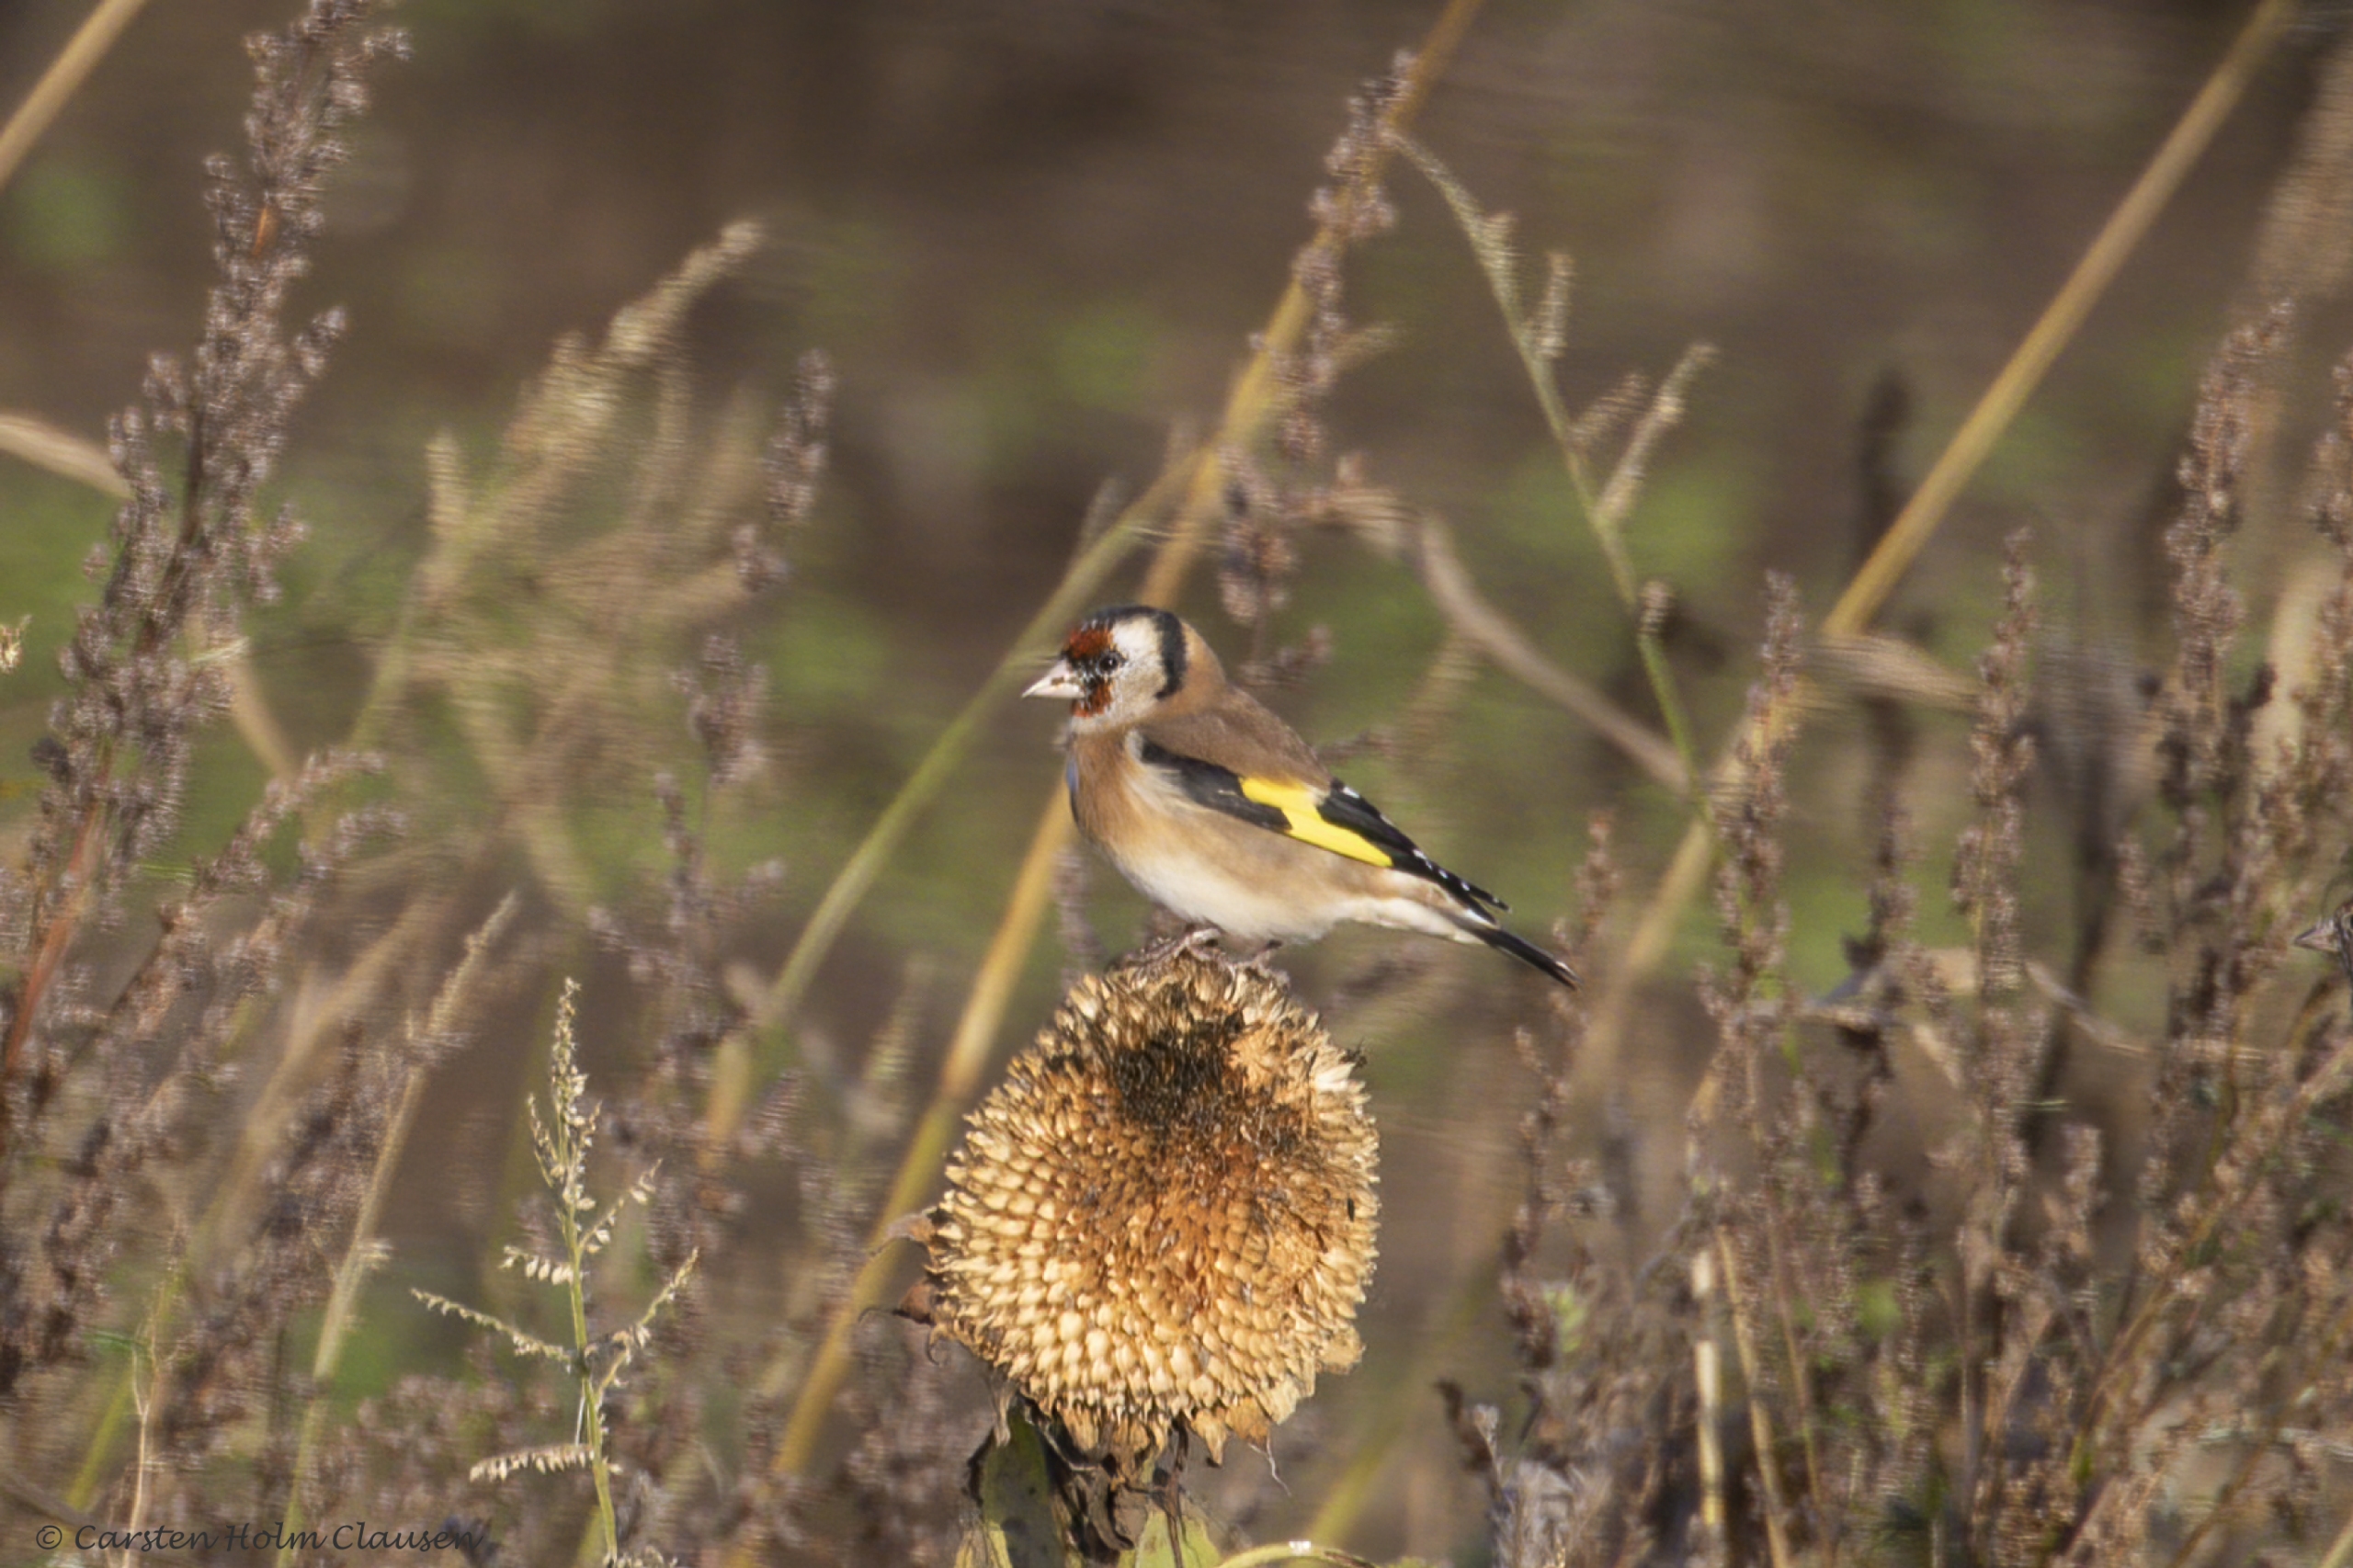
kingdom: Animalia
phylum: Chordata
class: Aves
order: Passeriformes
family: Fringillidae
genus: Carduelis
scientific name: Carduelis carduelis
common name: Stillits
